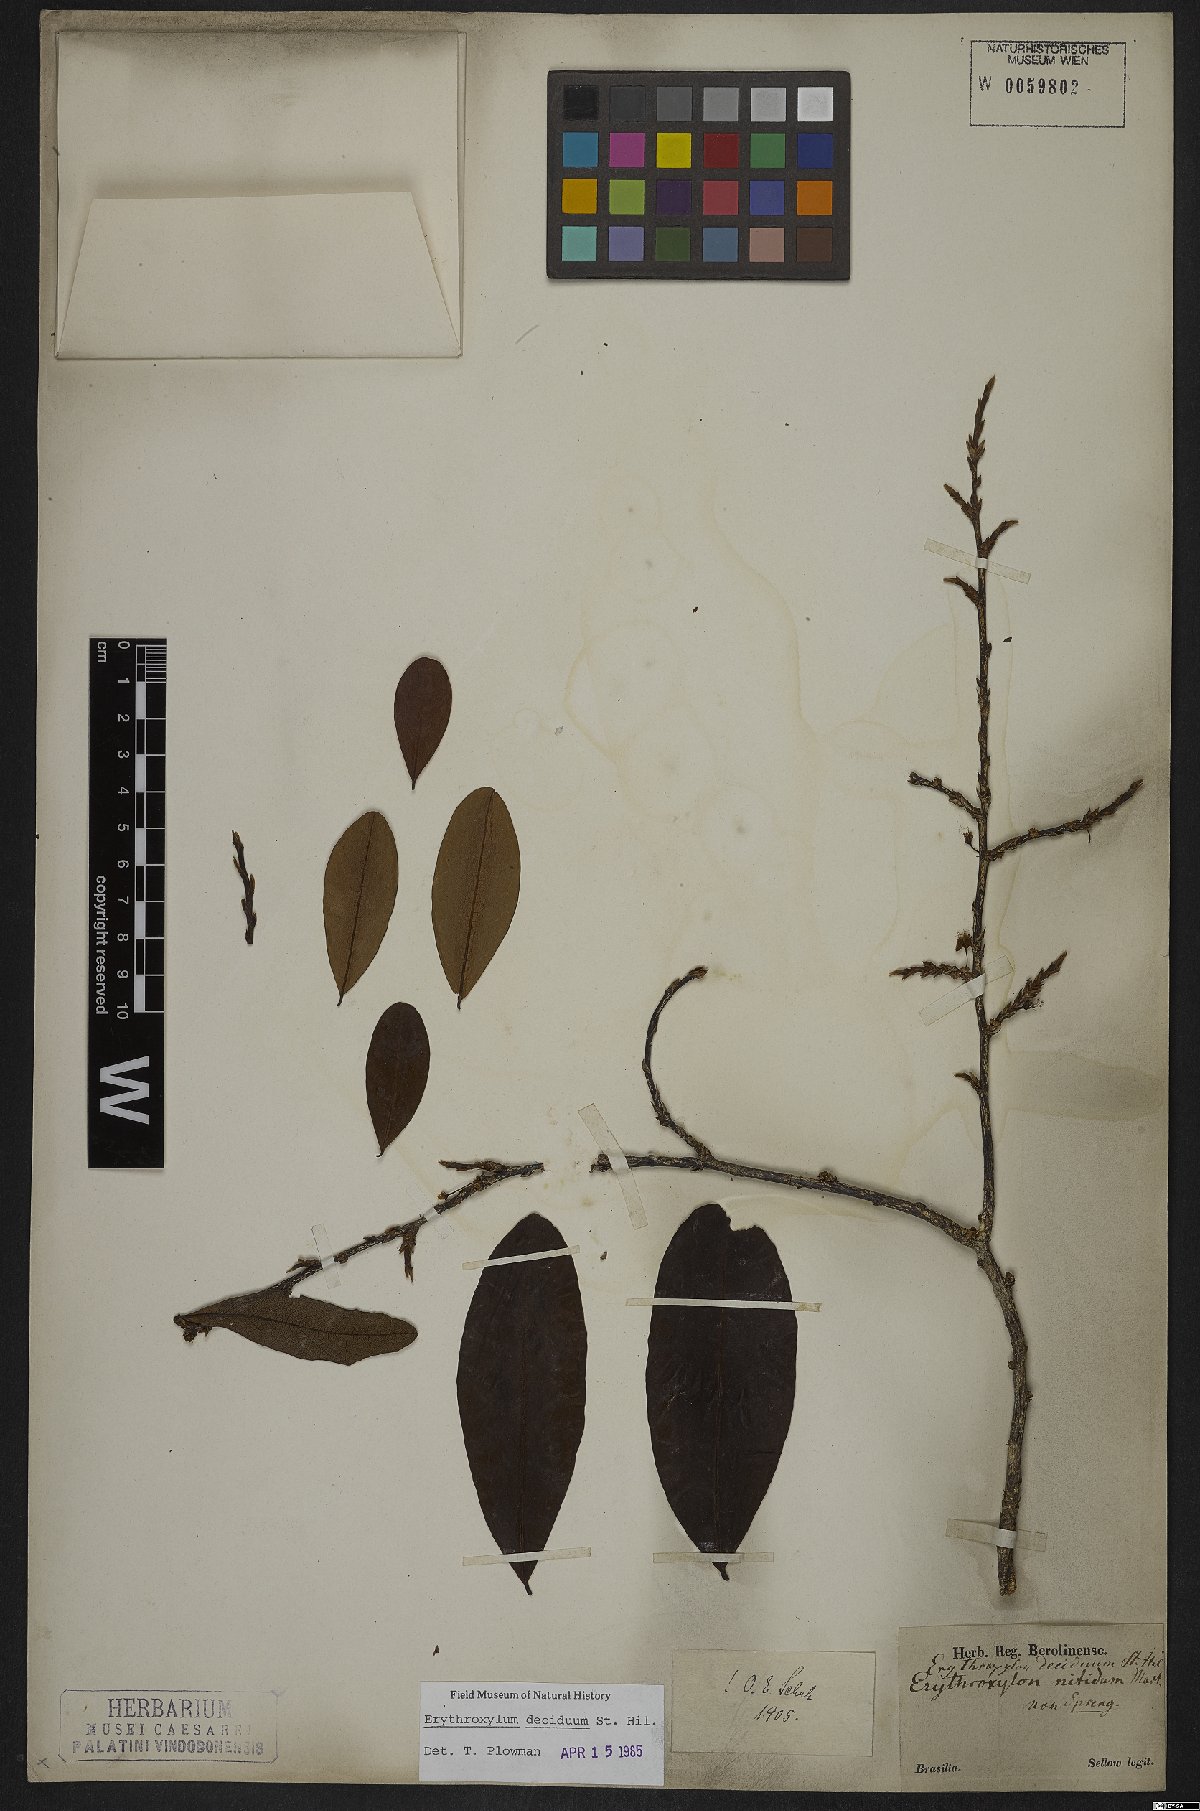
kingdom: Plantae
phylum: Tracheophyta
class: Magnoliopsida
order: Malpighiales
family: Erythroxylaceae
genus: Erythroxylum
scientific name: Erythroxylum deciduum
